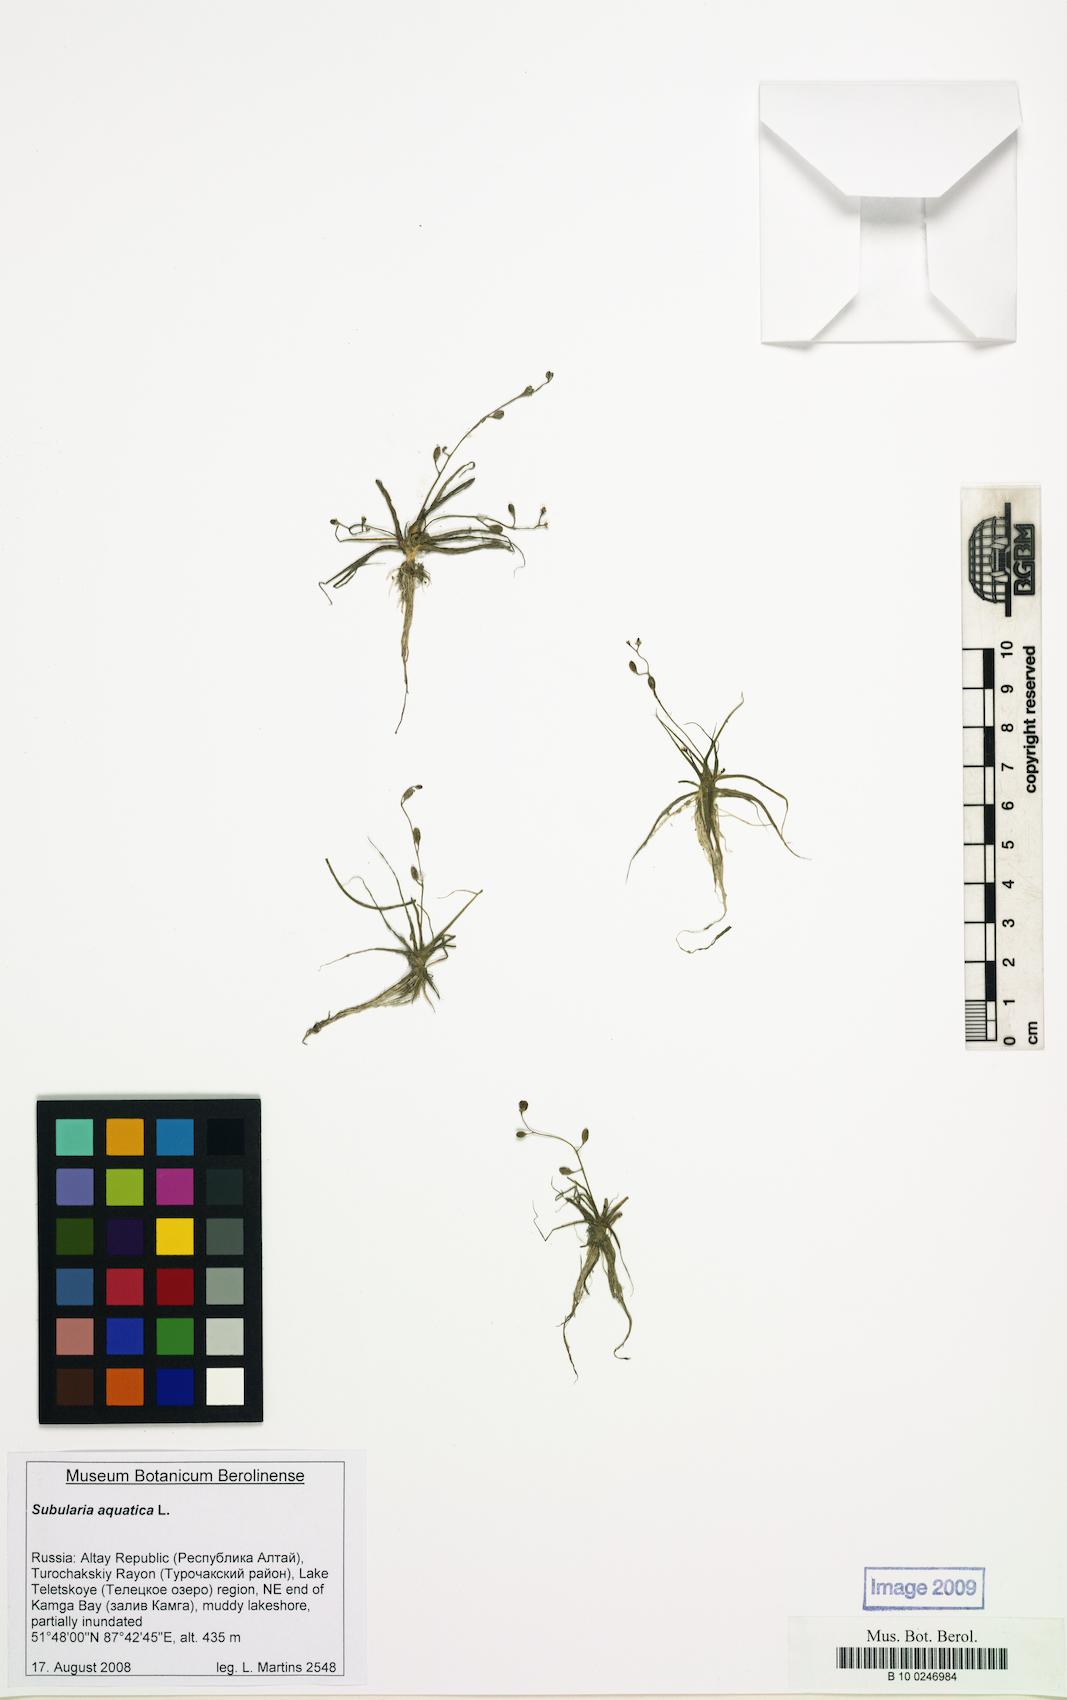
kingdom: Plantae
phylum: Tracheophyta
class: Magnoliopsida
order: Brassicales
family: Brassicaceae
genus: Subularia
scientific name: Subularia aquatica
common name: Awlwort
